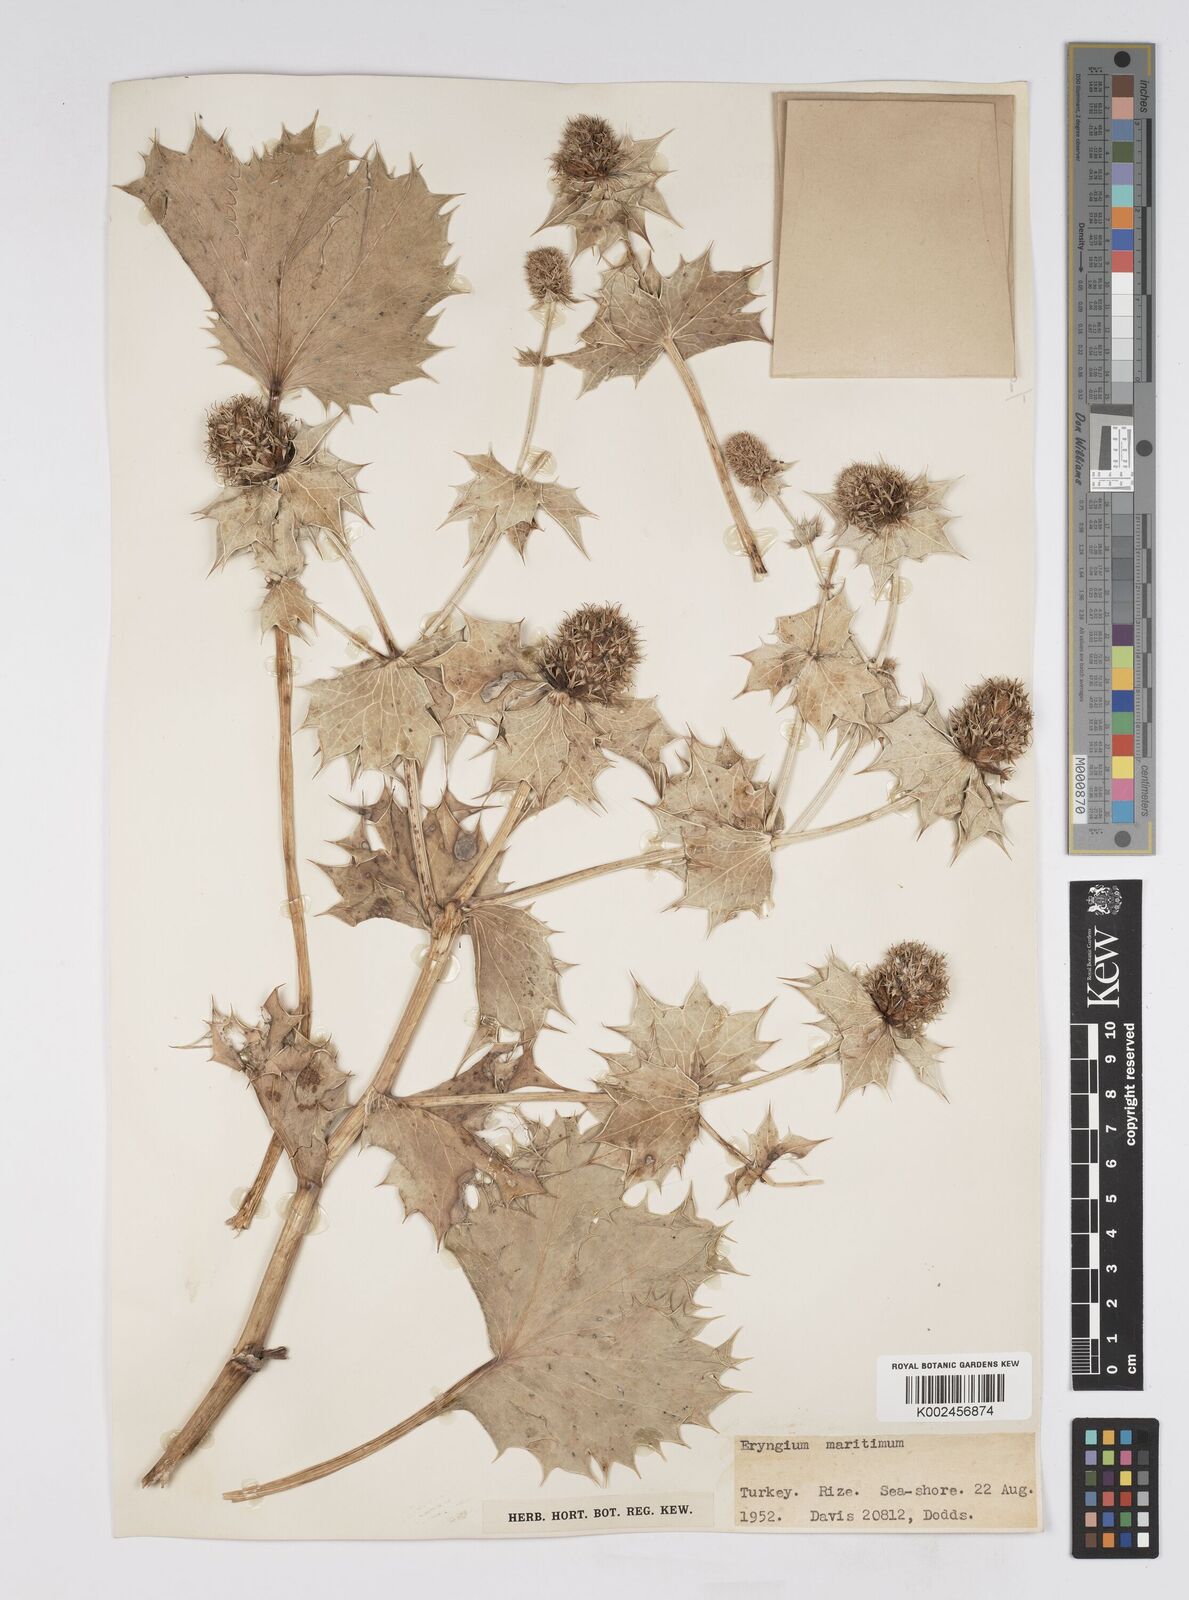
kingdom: Plantae
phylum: Tracheophyta
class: Magnoliopsida
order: Apiales
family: Apiaceae
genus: Eryngium
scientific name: Eryngium maritimum
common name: Sea-holly
